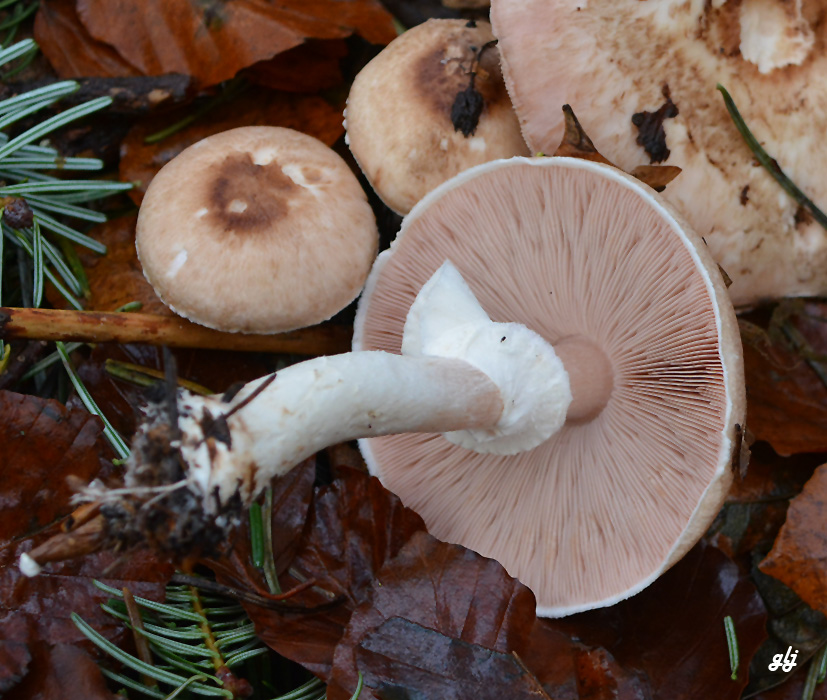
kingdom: Fungi
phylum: Basidiomycota
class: Agaricomycetes
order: Agaricales
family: Agaricaceae
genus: Agaricus
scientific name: Agaricus
